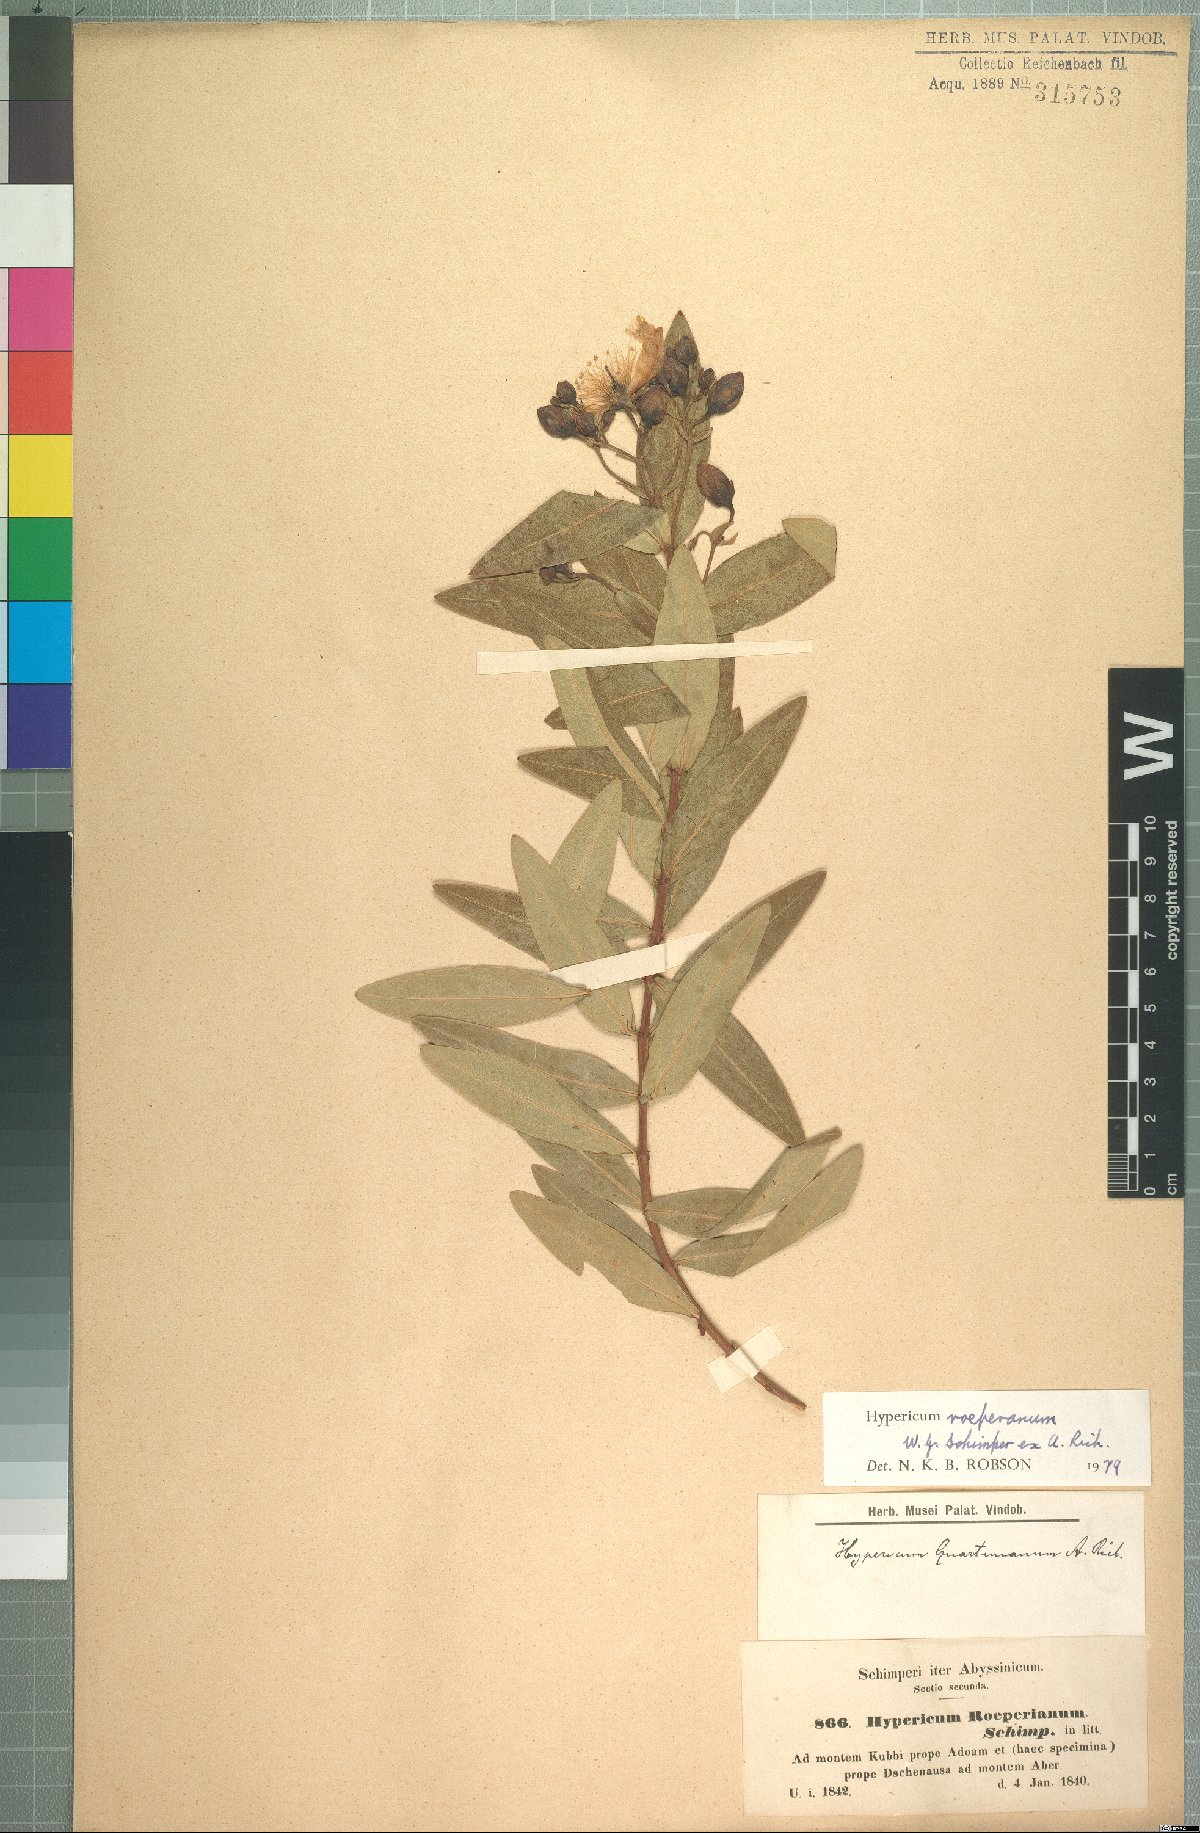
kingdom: Plantae
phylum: Tracheophyta
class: Magnoliopsida
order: Malpighiales
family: Hypericaceae
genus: Hypericum
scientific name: Hypericum roeperianum
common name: Large-leaved curry-bush
